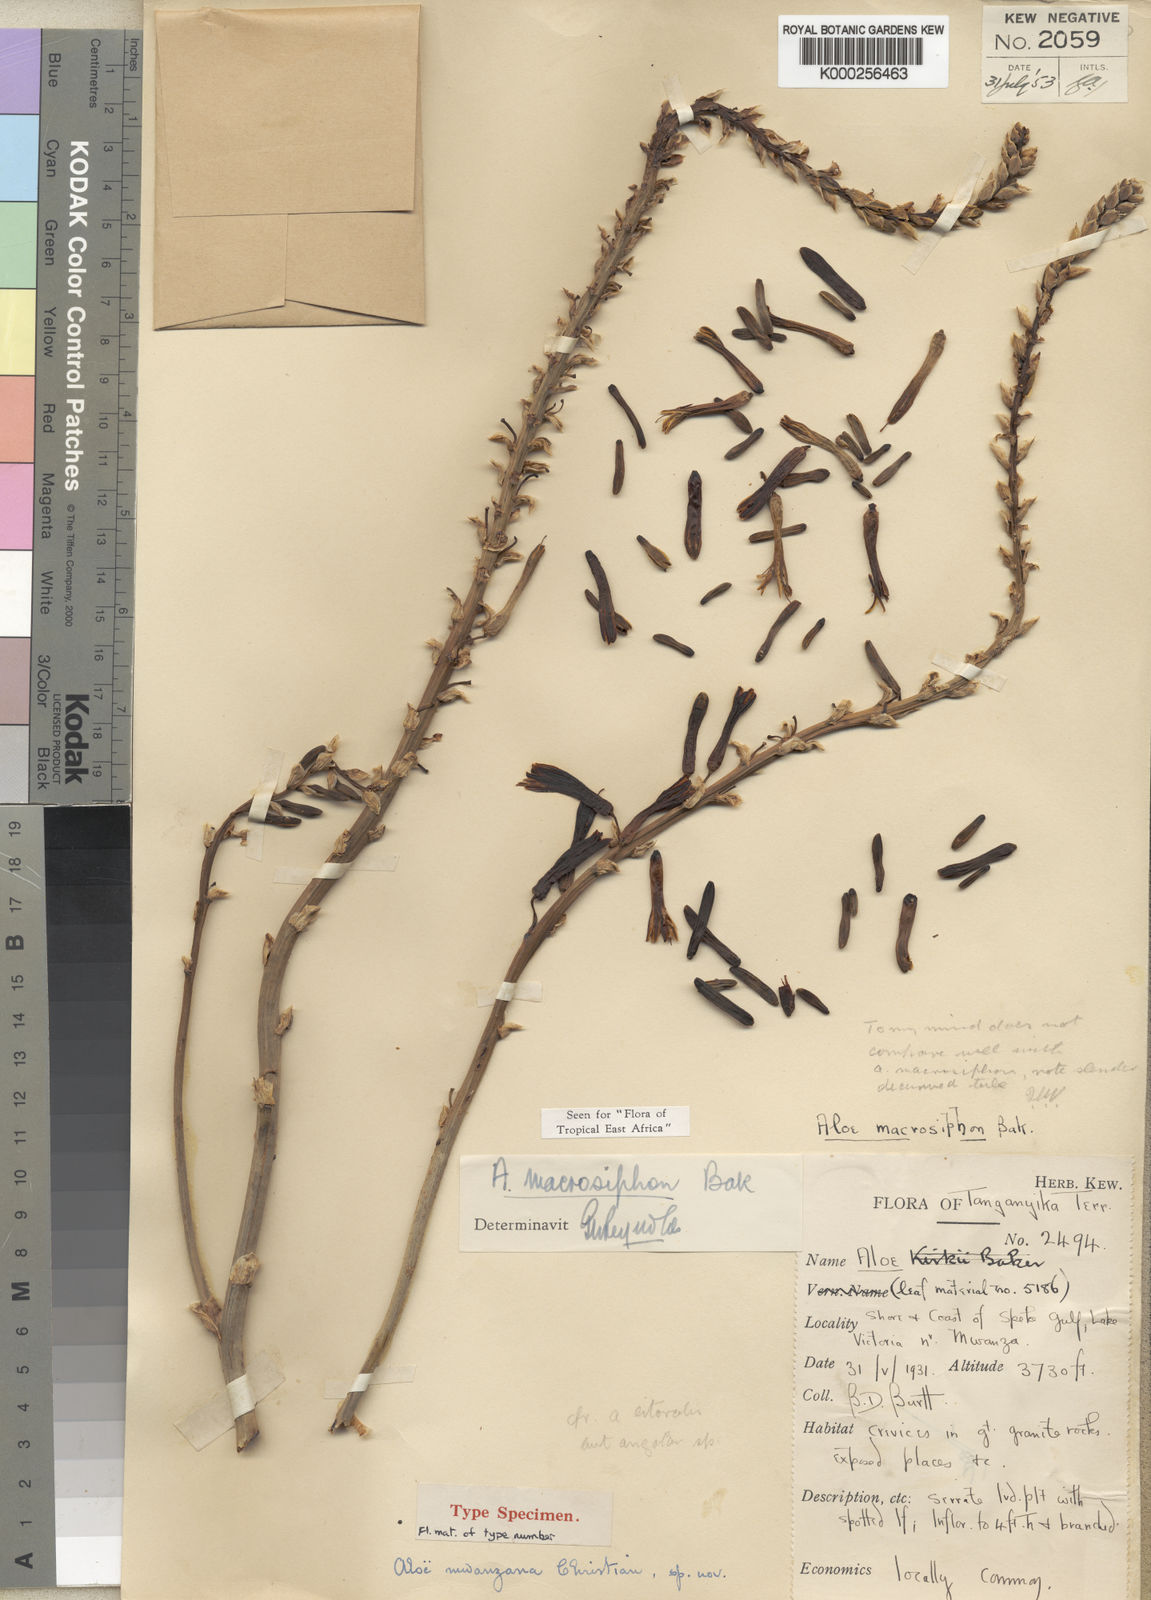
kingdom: Plantae
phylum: Tracheophyta
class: Liliopsida
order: Asparagales
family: Asphodelaceae
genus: Aloe
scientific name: Aloe macrosiphon
